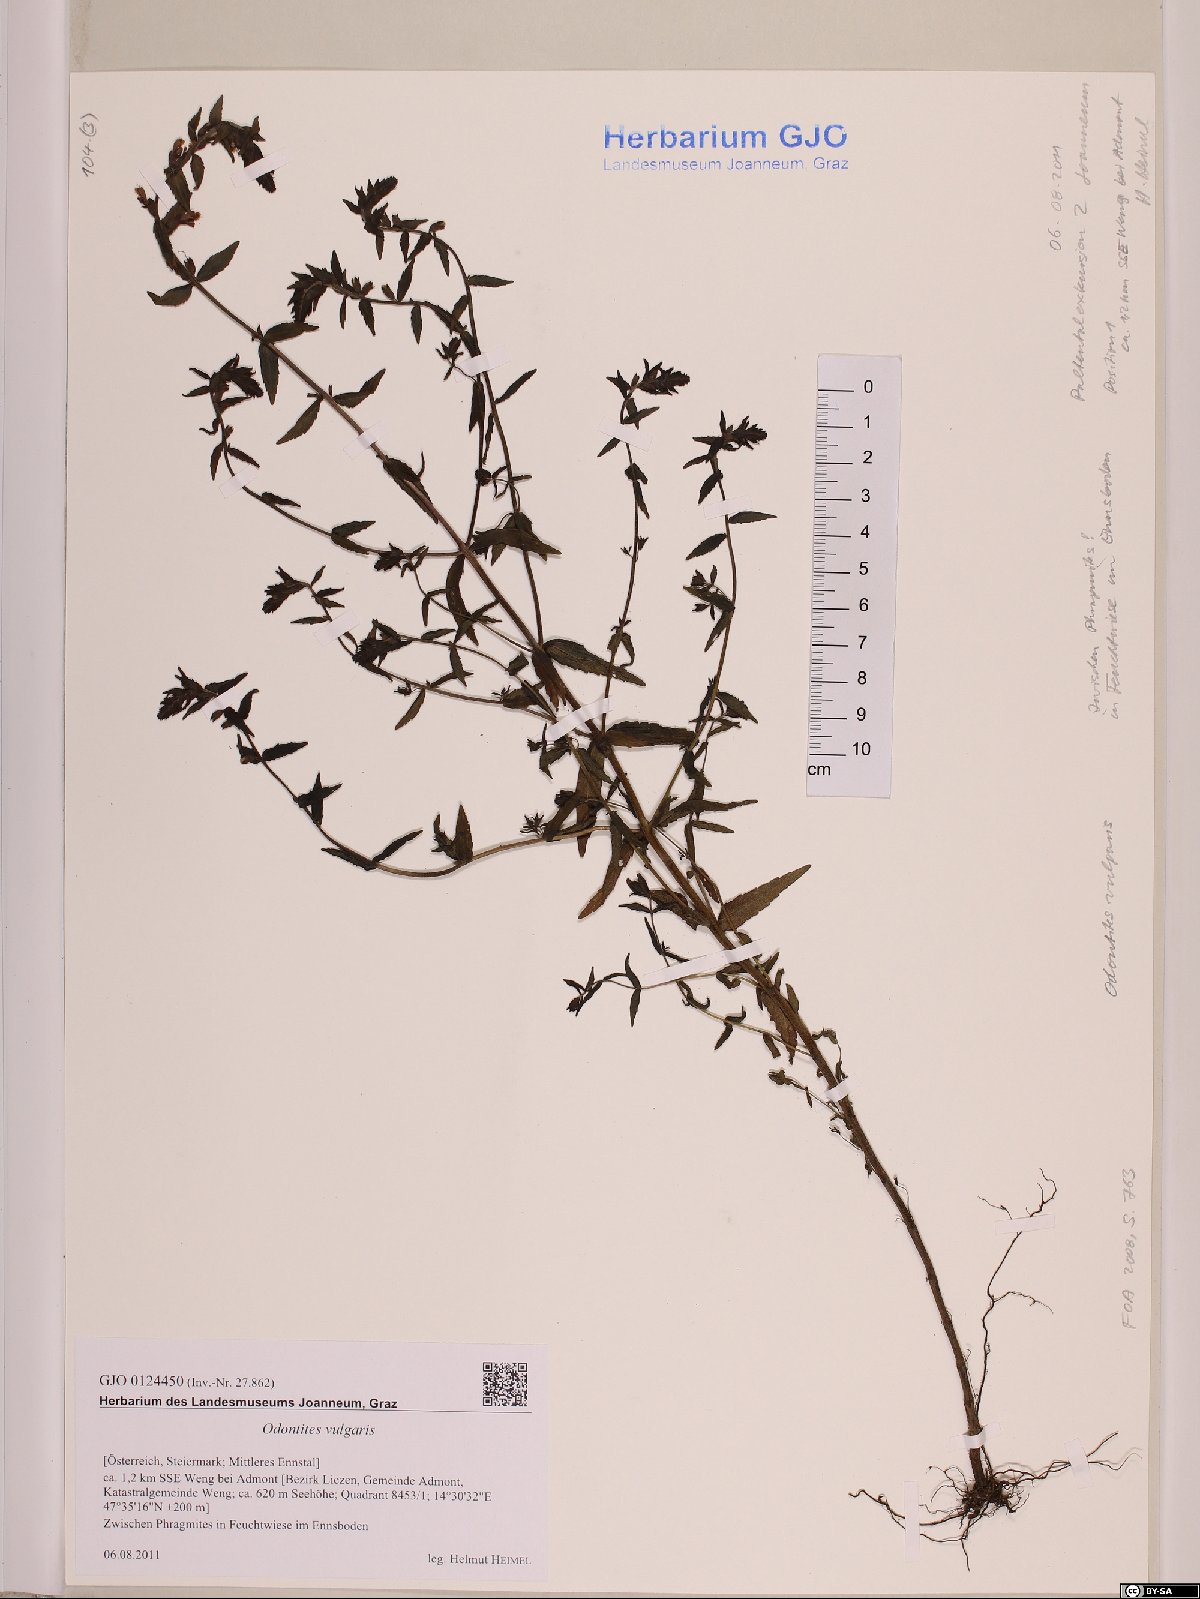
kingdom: Plantae
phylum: Tracheophyta
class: Magnoliopsida
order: Lamiales
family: Orobanchaceae
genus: Odontites
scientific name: Odontites vulgaris
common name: Broomrape
